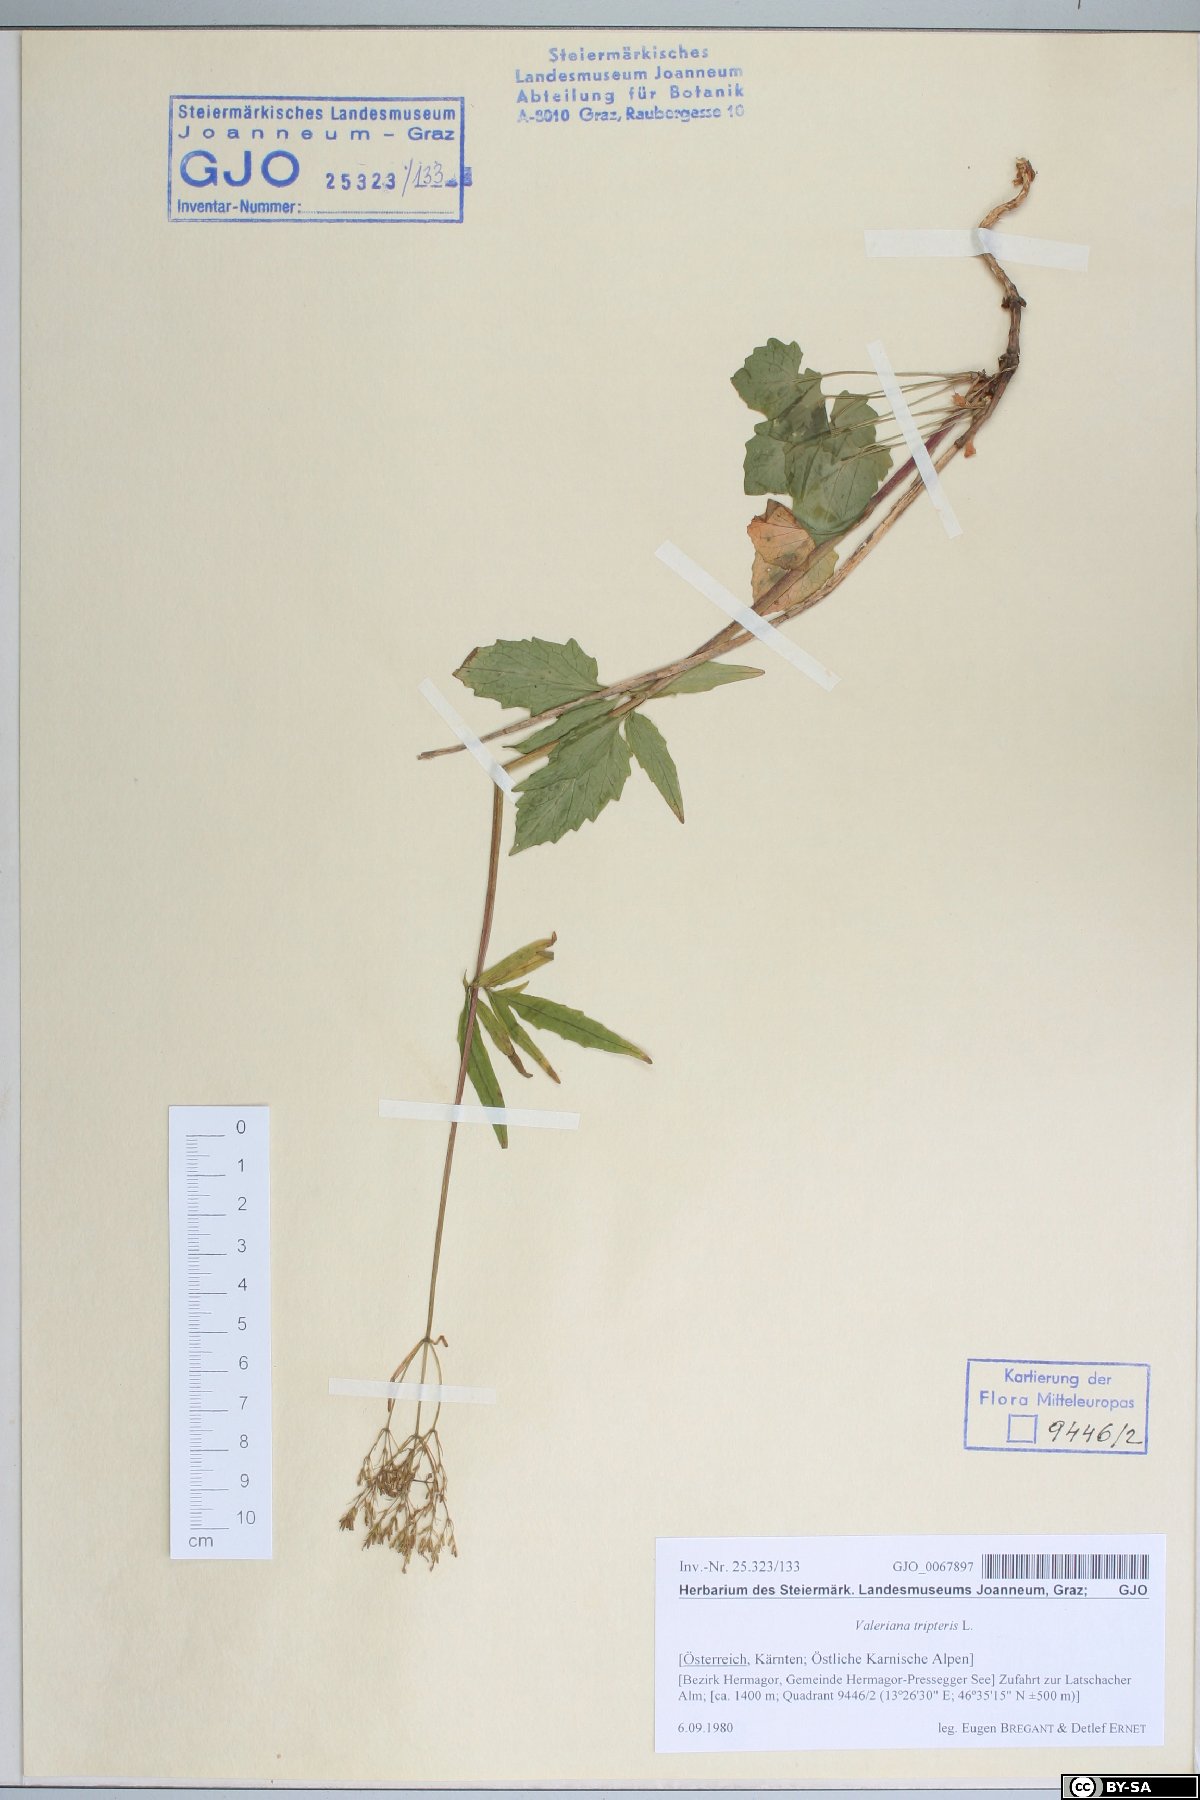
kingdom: Plantae
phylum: Tracheophyta
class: Magnoliopsida
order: Dipsacales
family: Caprifoliaceae
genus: Valeriana
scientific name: Valeriana tripteris
